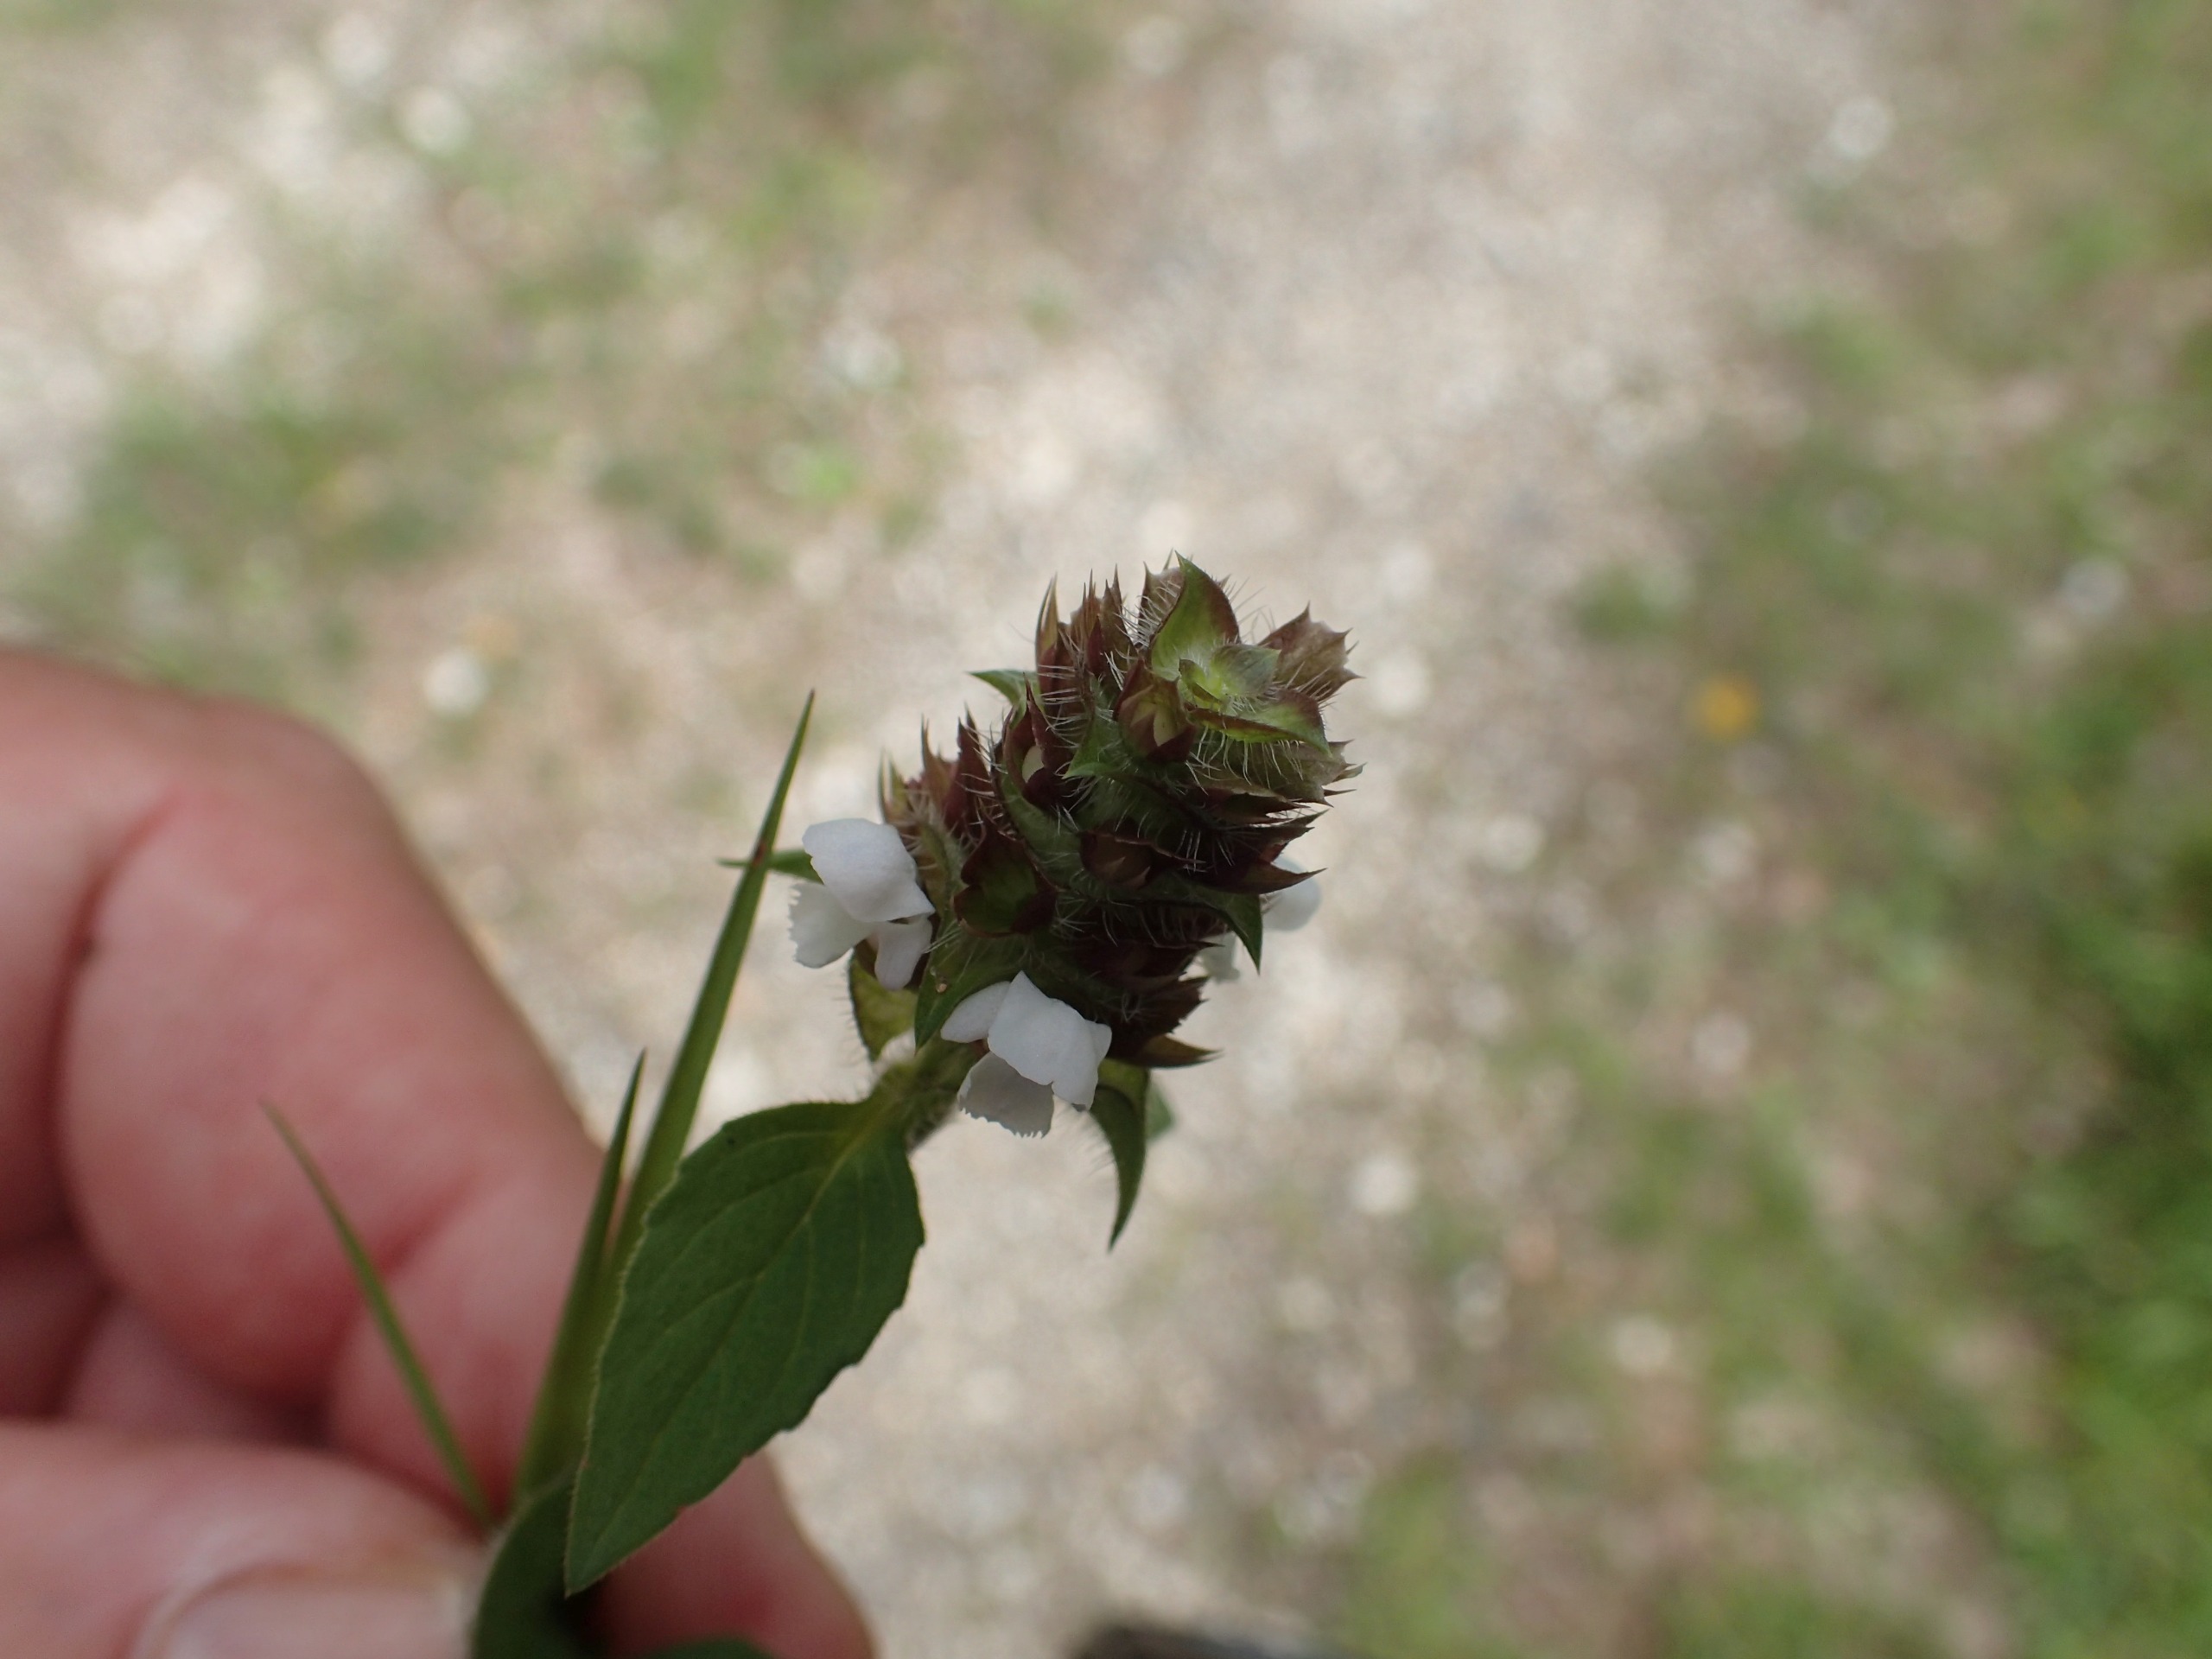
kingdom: Plantae
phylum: Tracheophyta
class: Magnoliopsida
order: Lamiales
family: Lamiaceae
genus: Prunella
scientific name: Prunella vulgaris
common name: Almindelig brunelle
